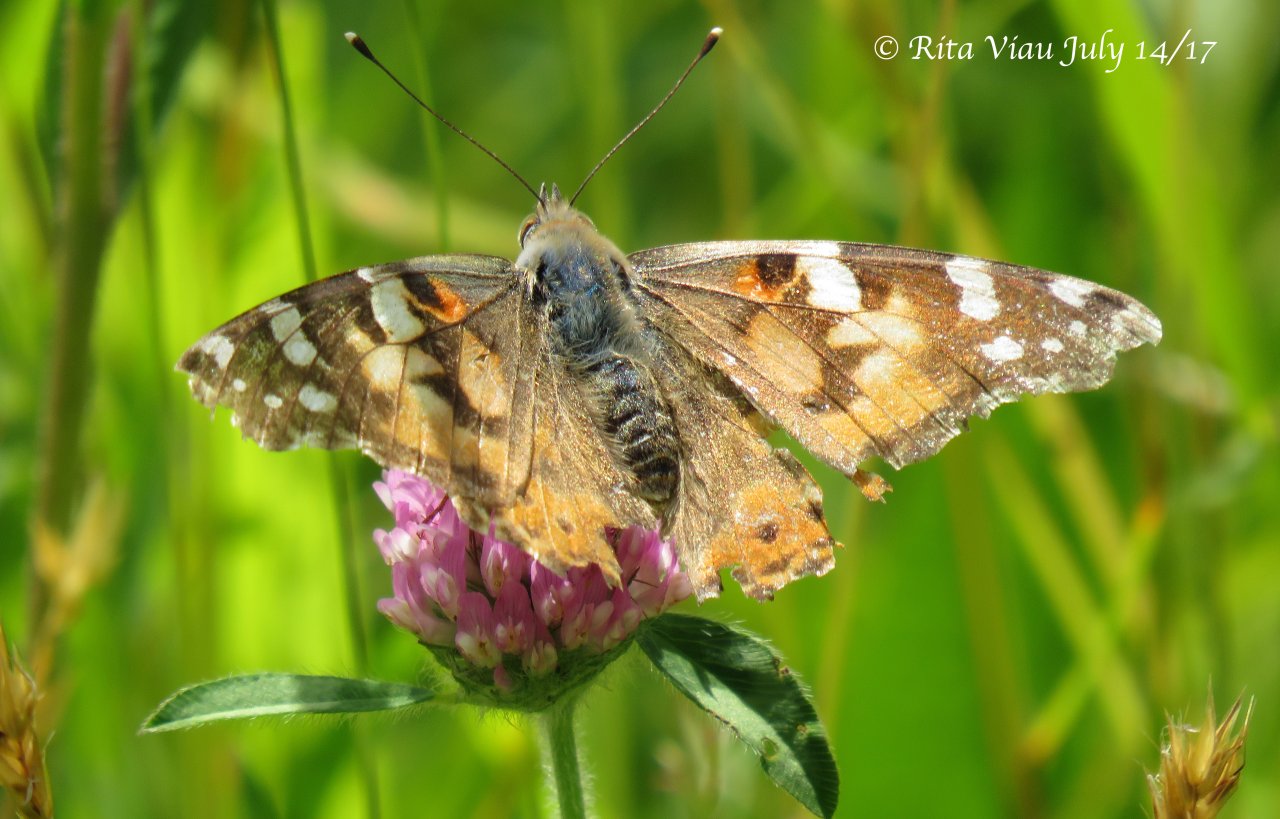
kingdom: Animalia
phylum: Arthropoda
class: Insecta
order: Lepidoptera
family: Nymphalidae
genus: Vanessa
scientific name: Vanessa cardui
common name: Painted Lady
